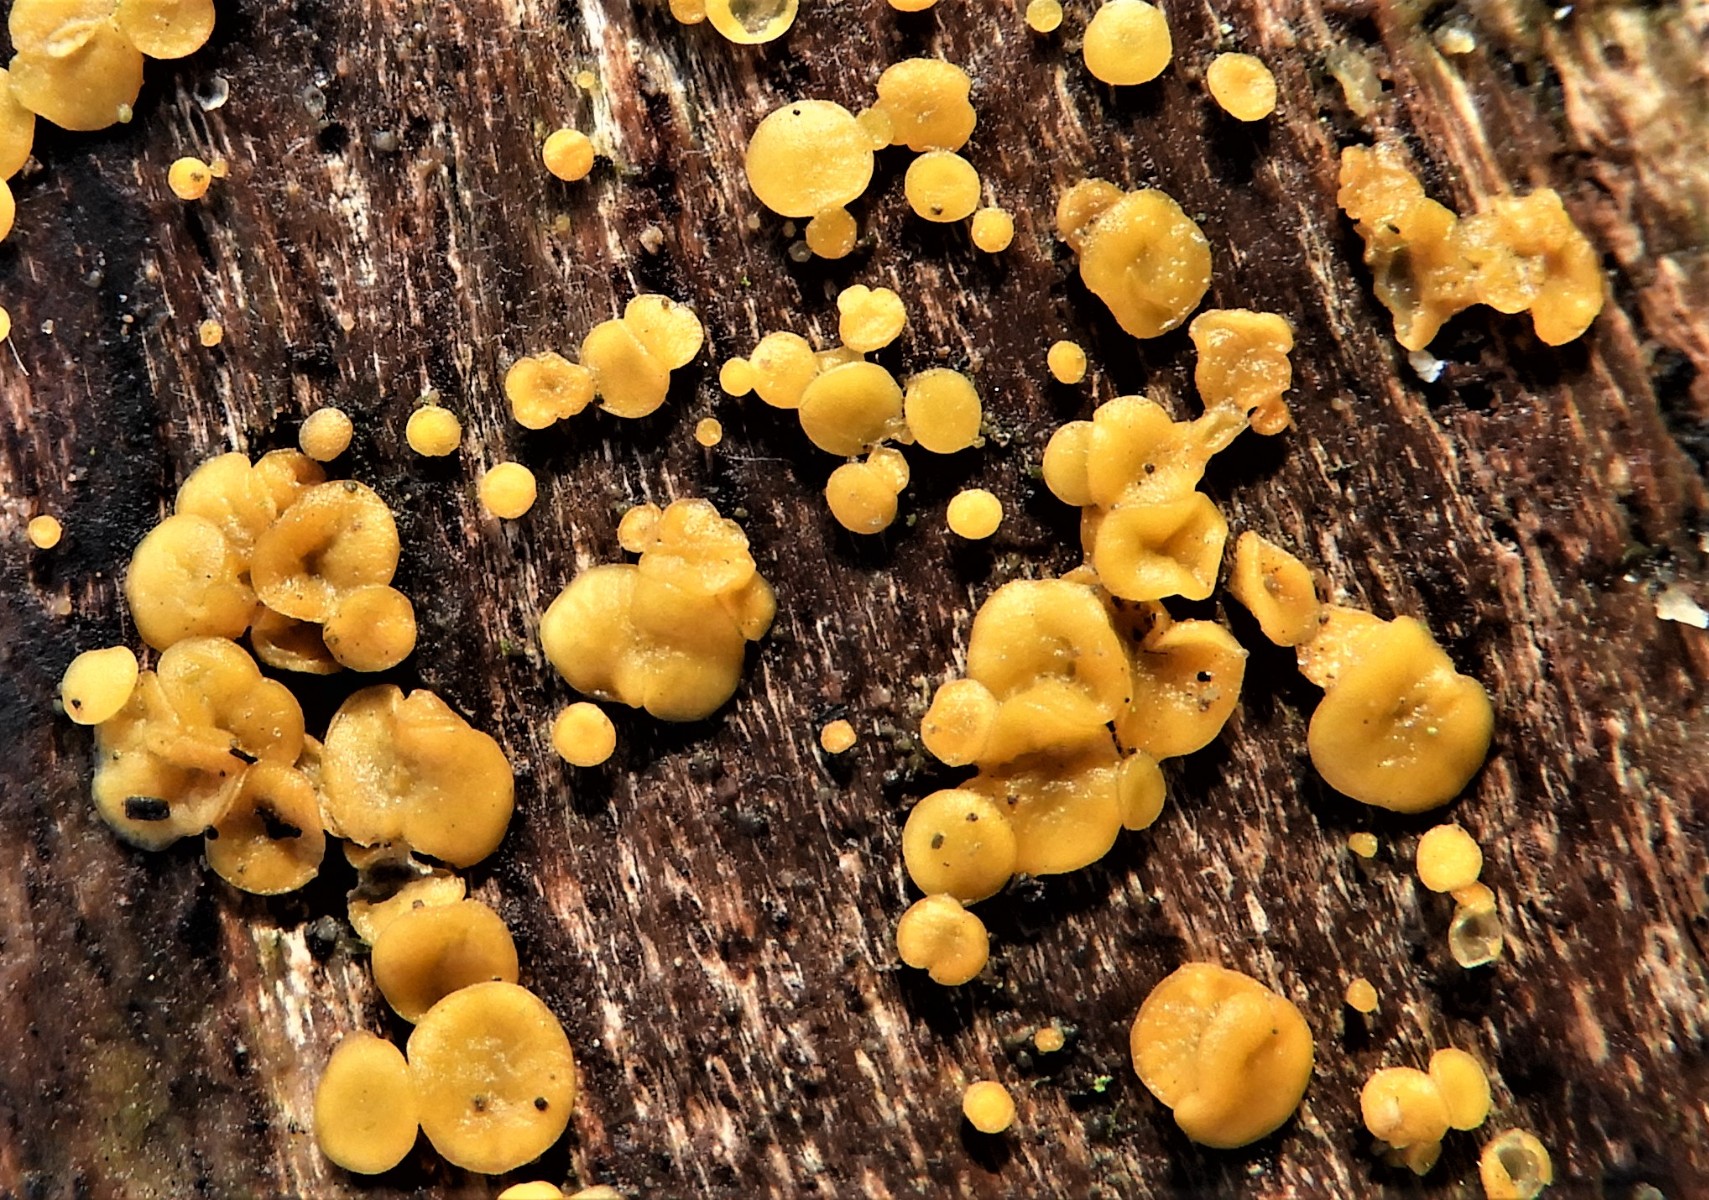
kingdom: Fungi
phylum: Ascomycota
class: Leotiomycetes
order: Helotiales
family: Pezizellaceae
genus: Calycina
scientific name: Calycina citrina
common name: almindelig gulskive
